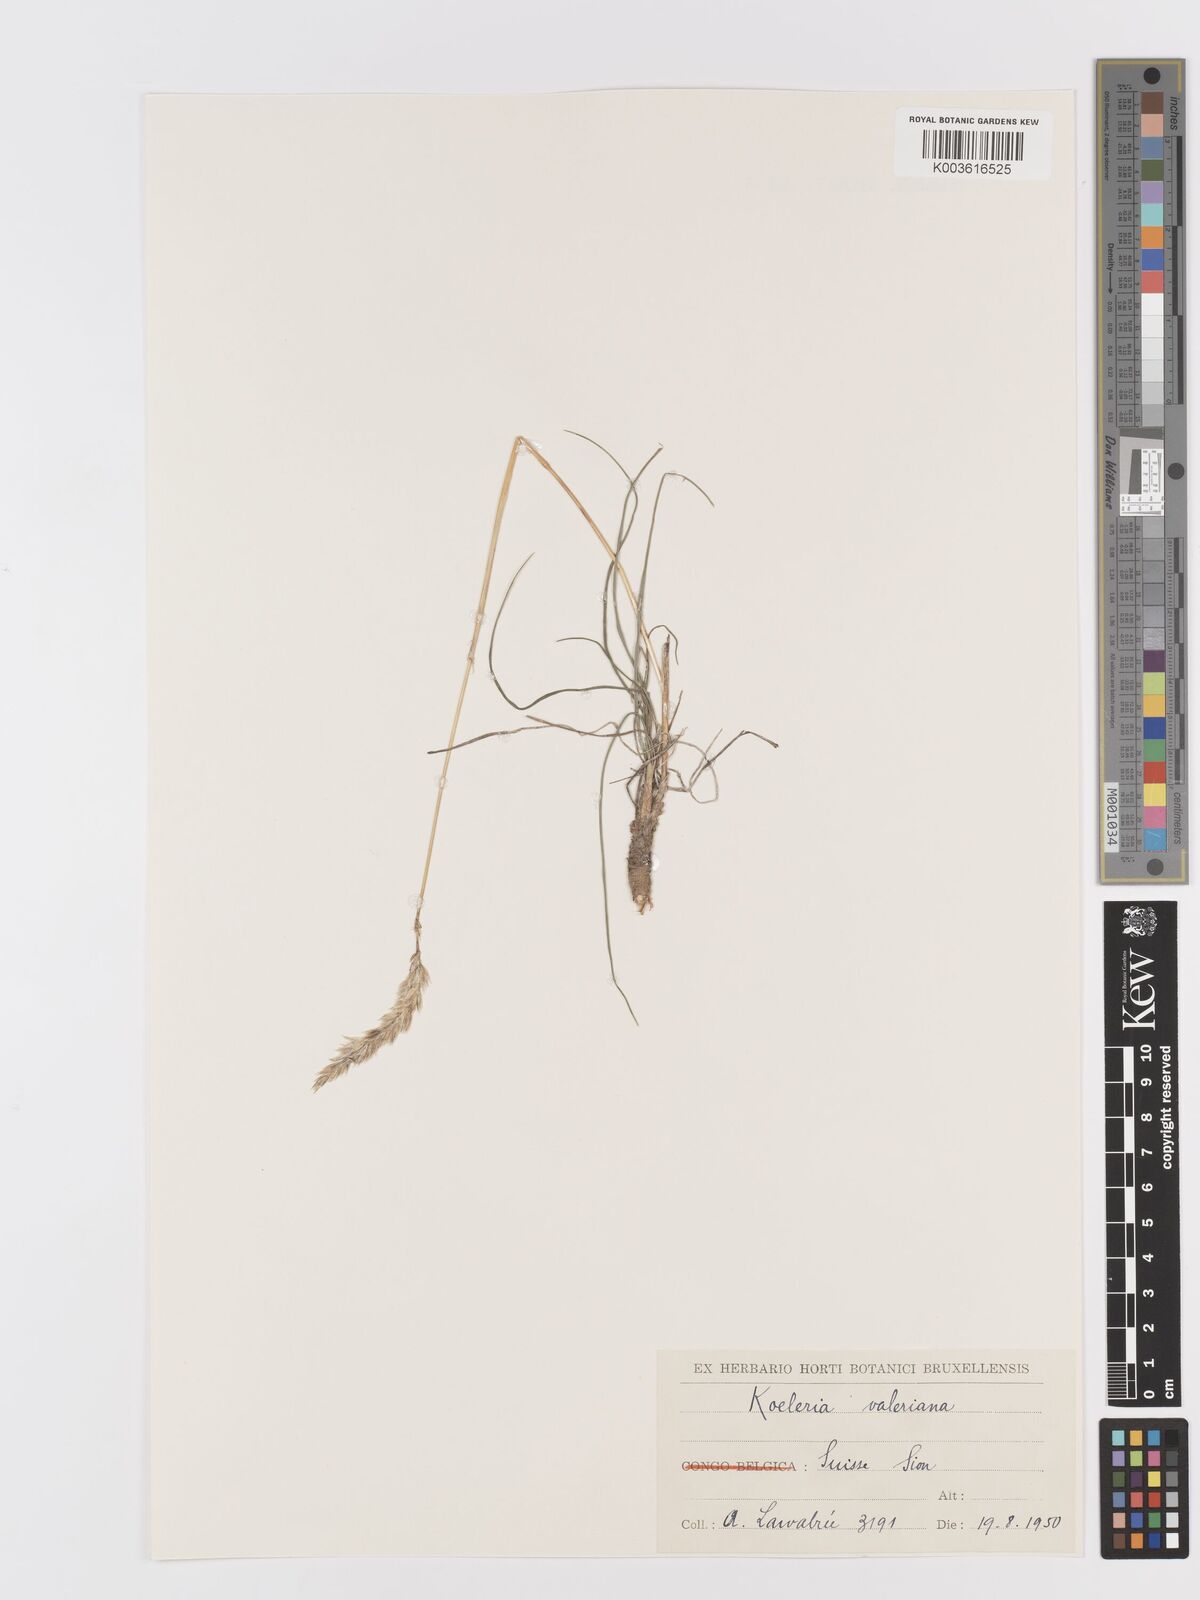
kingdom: Plantae
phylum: Tracheophyta
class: Liliopsida
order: Poales
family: Poaceae
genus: Koeleria
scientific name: Koeleria vallesiana
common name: Somerset hair-grass
